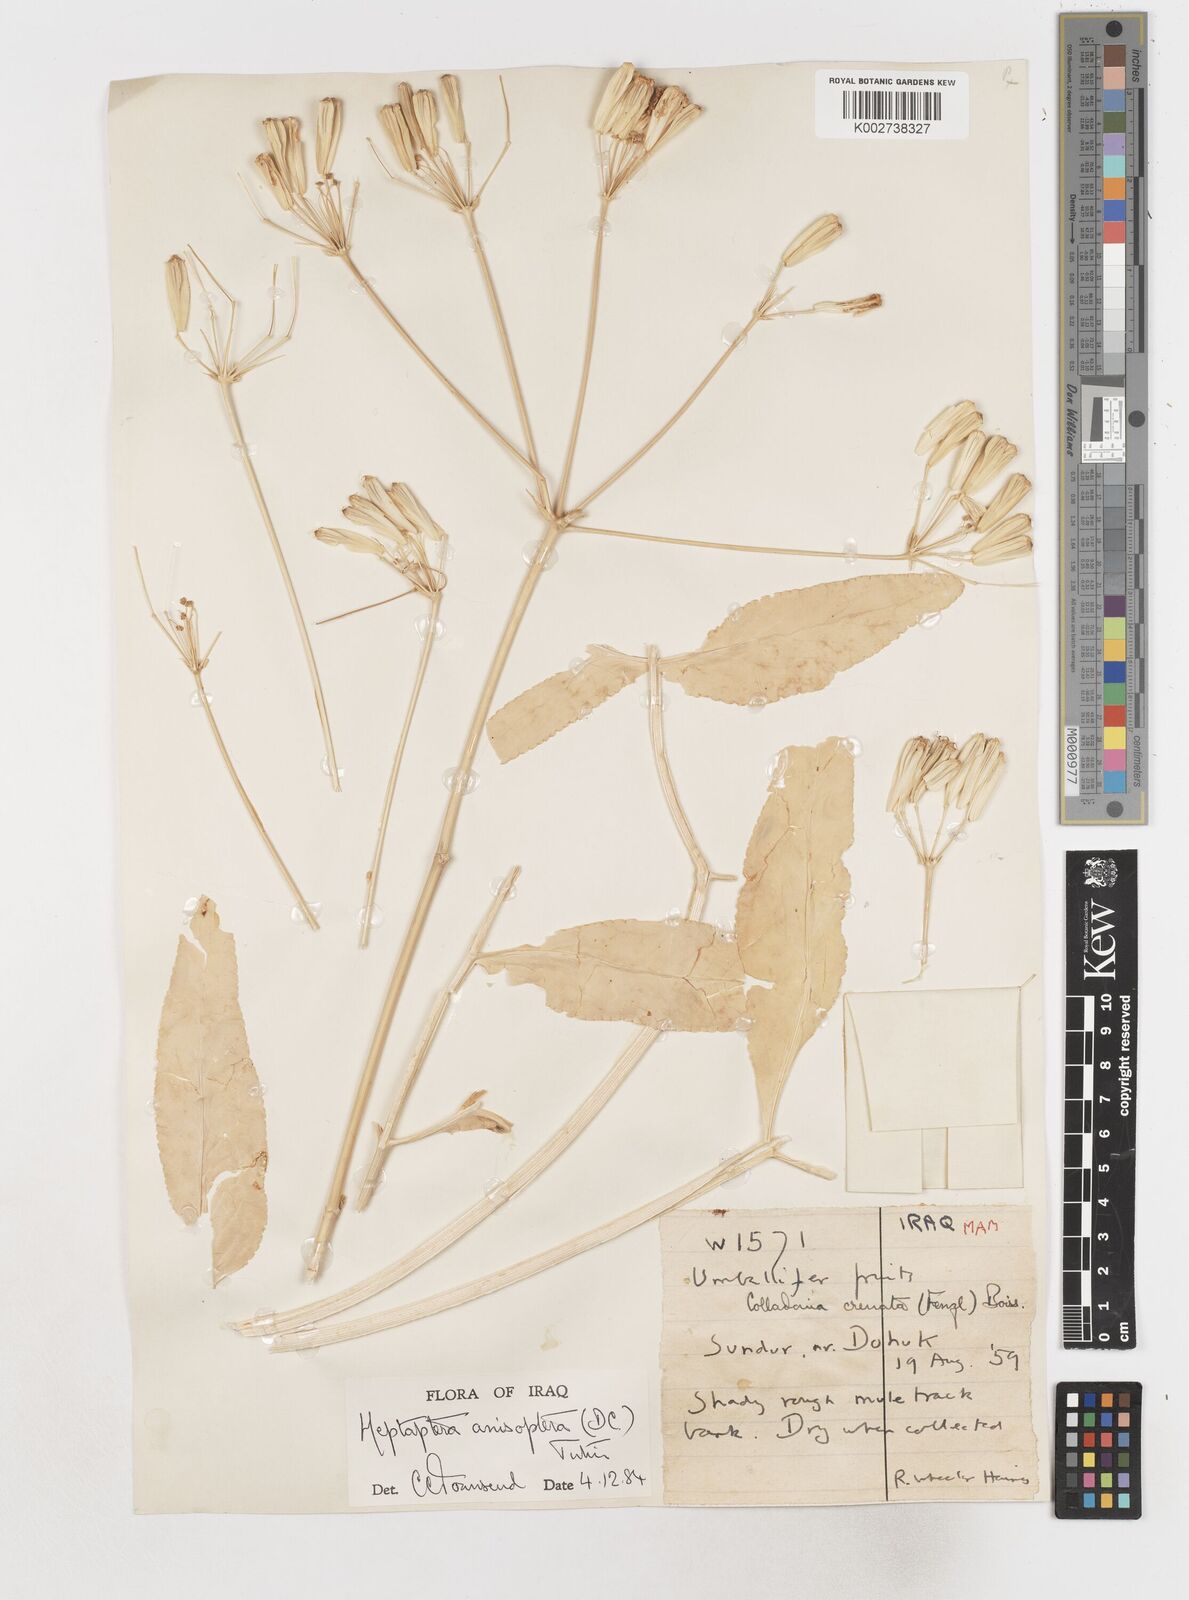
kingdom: Plantae
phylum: Tracheophyta
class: Magnoliopsida
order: Apiales
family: Apiaceae
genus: Heptaptera
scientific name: Heptaptera
